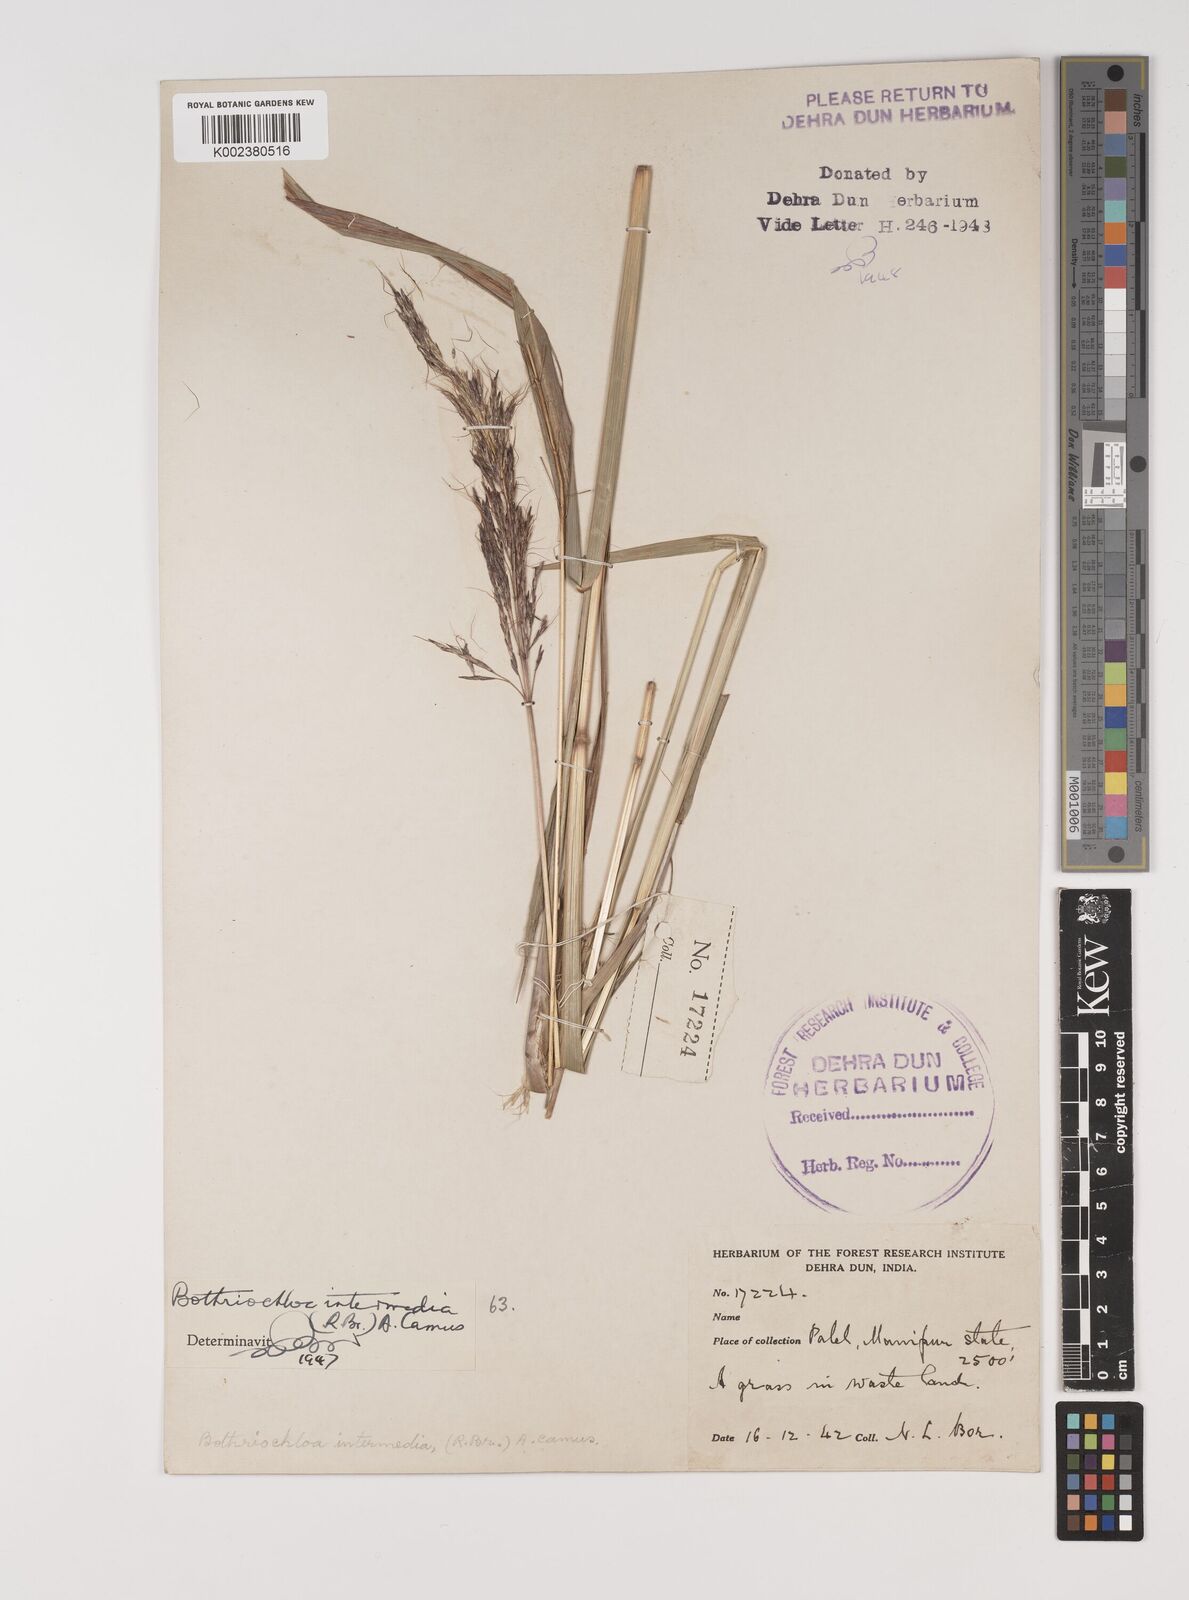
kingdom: Plantae
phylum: Tracheophyta
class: Liliopsida
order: Poales
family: Poaceae
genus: Bothriochloa
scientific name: Bothriochloa bladhii
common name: Caucasian bluestem
